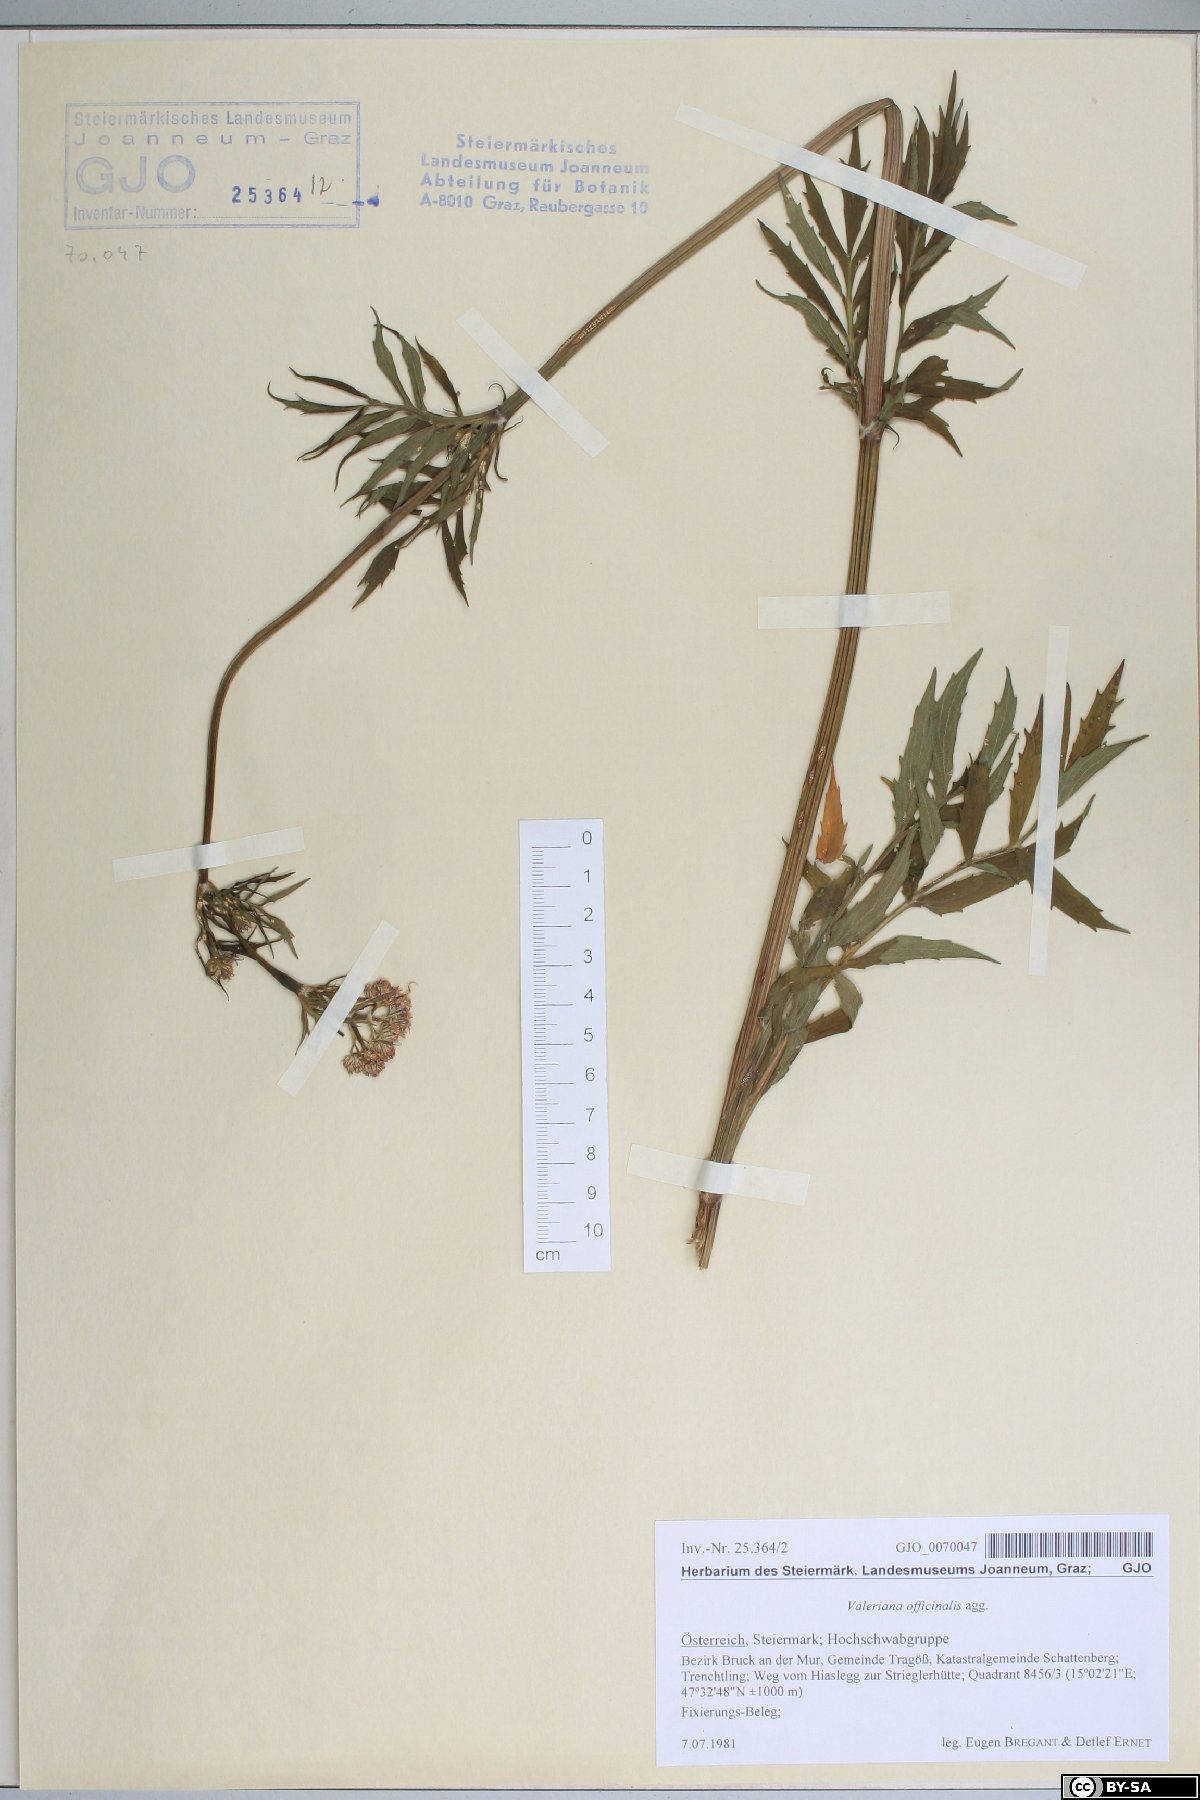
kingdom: Plantae
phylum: Tracheophyta
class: Magnoliopsida
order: Dipsacales
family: Caprifoliaceae
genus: Valeriana
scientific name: Valeriana officinalis
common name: Common valerian
